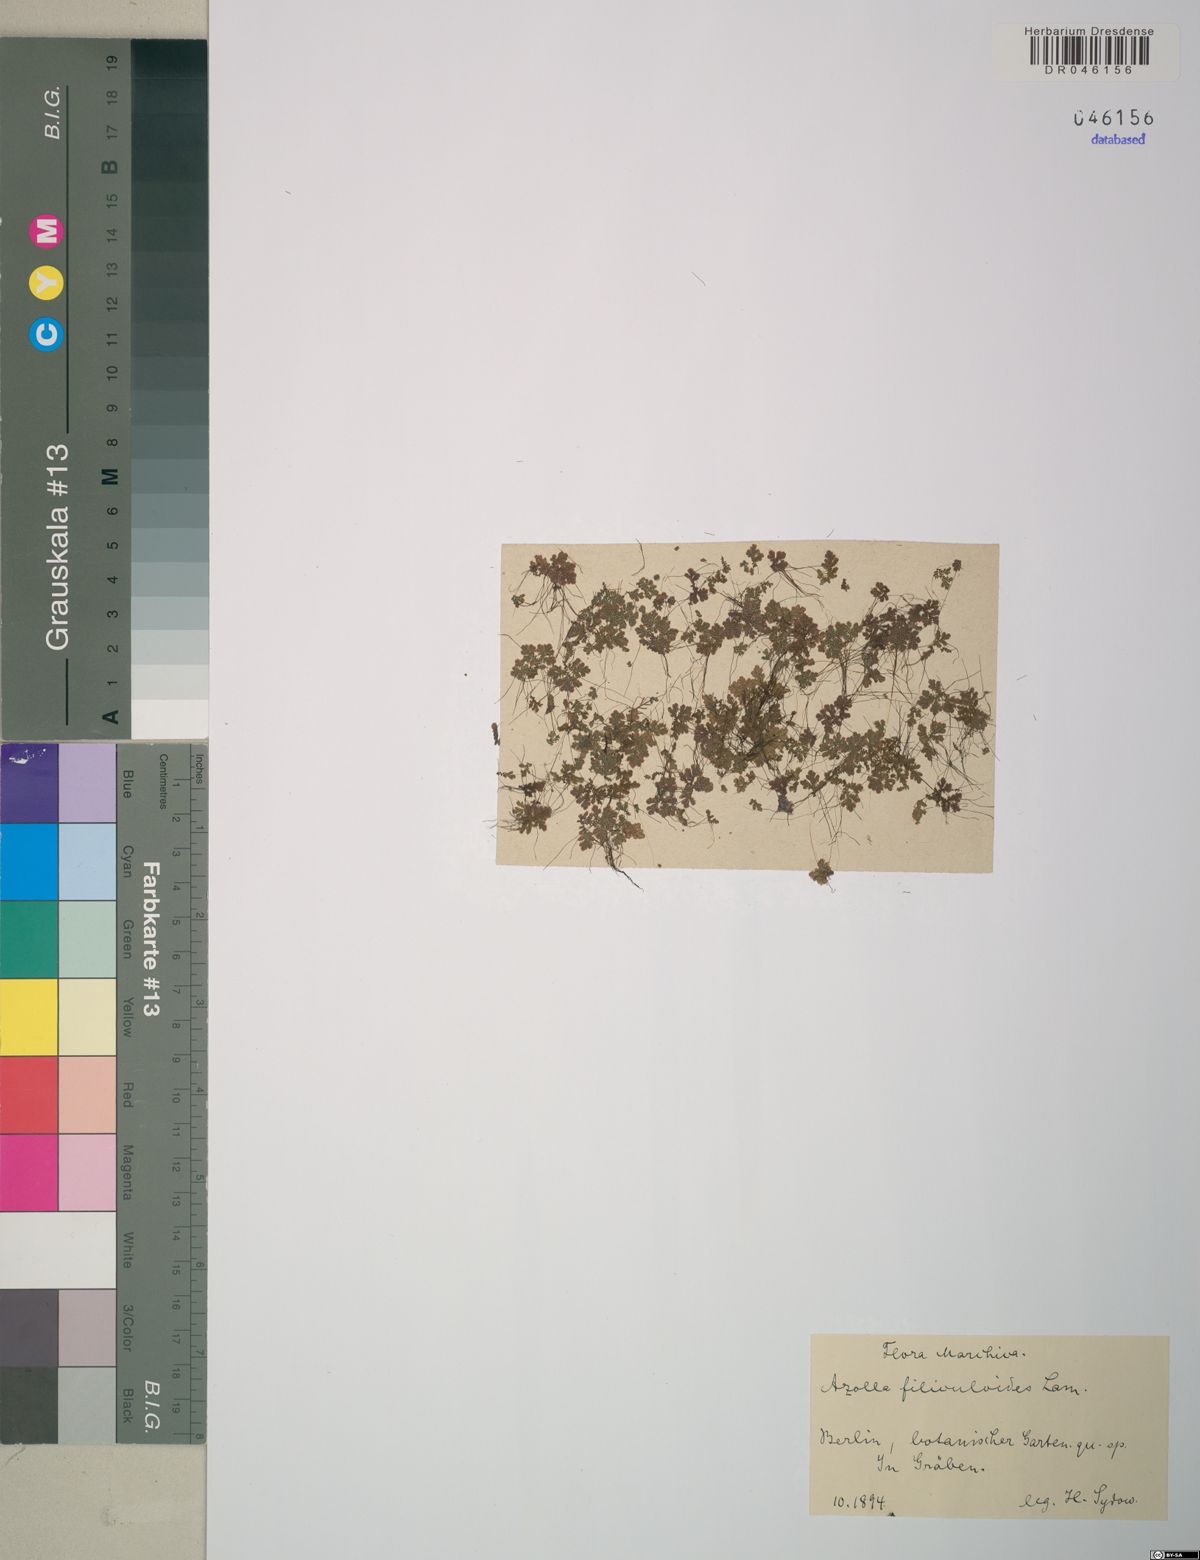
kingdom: Plantae
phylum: Tracheophyta
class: Polypodiopsida
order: Salviniales
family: Salviniaceae
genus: Azolla
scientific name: Azolla filiculoides
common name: Water fern
